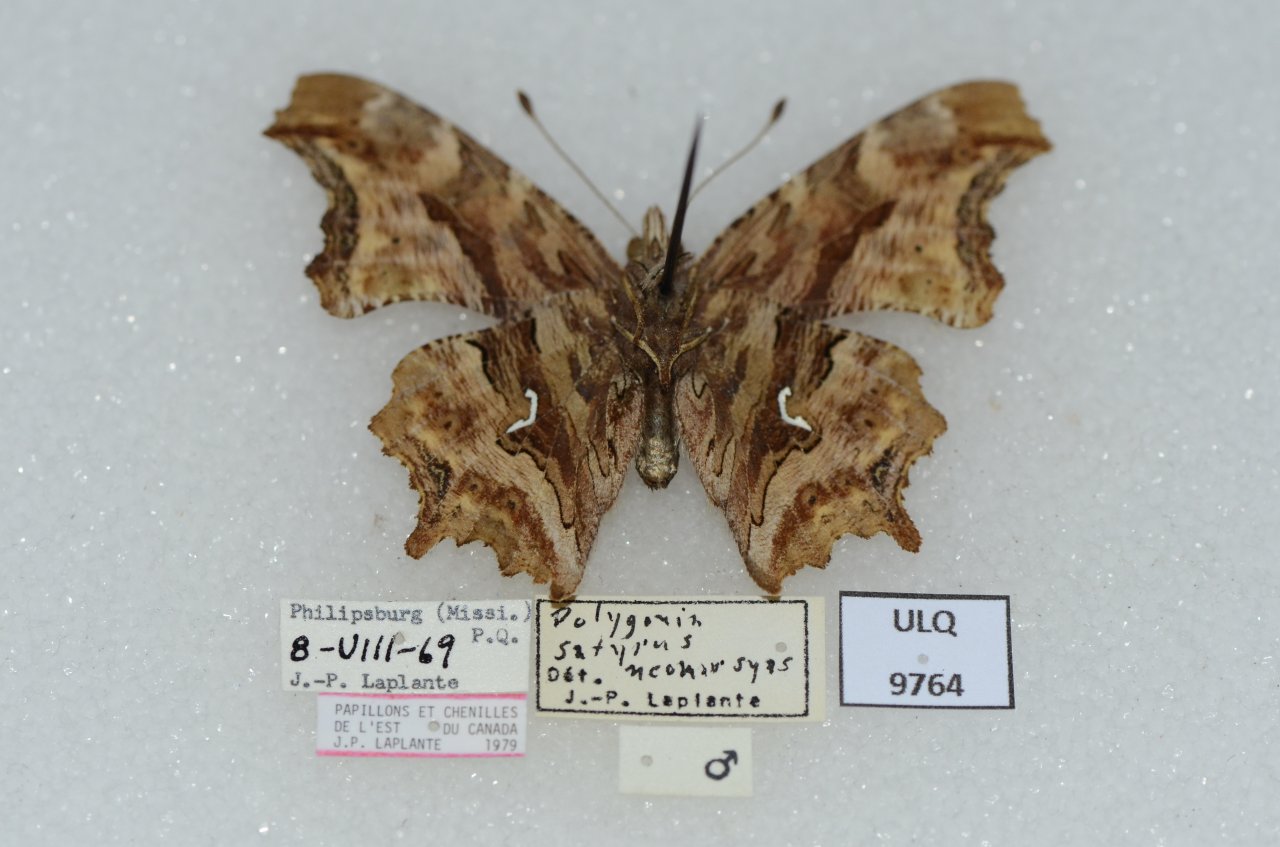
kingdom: Animalia
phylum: Arthropoda
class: Insecta
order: Lepidoptera
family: Nymphalidae
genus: Polygonia
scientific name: Polygonia satyrus
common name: Satyr Comma
